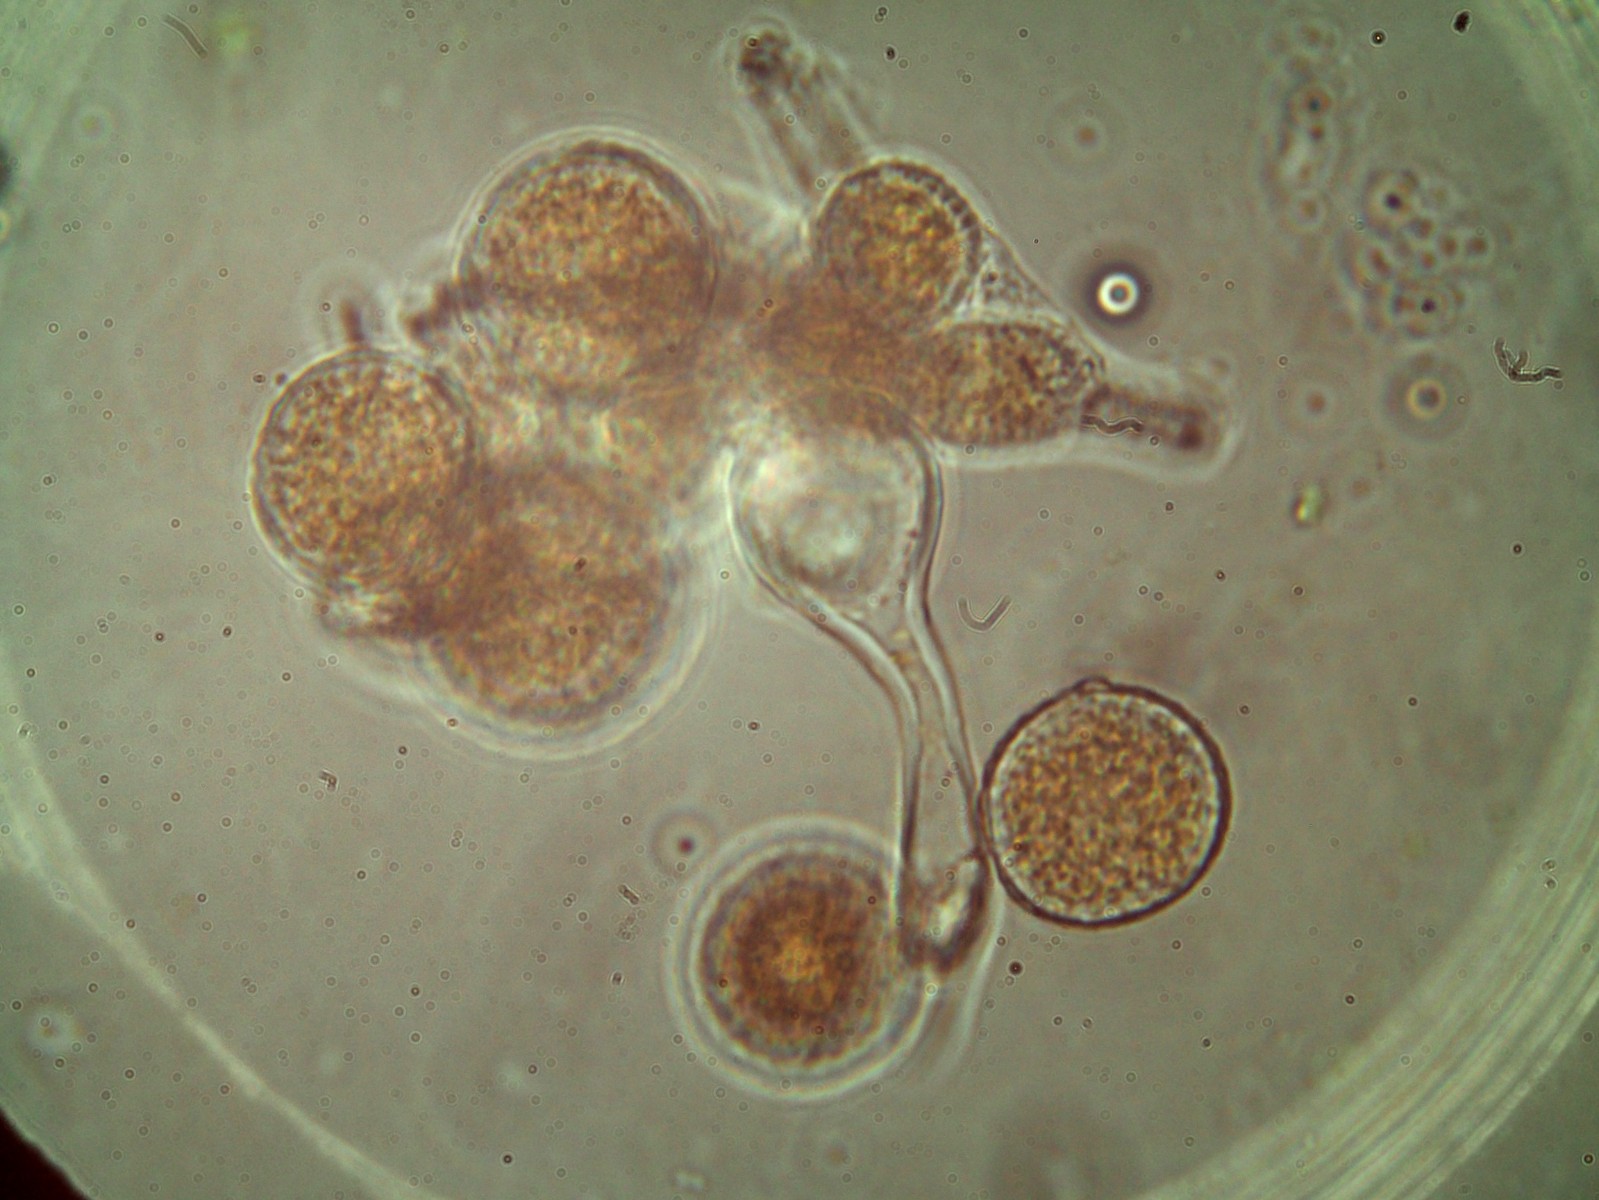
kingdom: Fungi
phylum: Basidiomycota
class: Pucciniomycetes
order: Pucciniales
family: Melampsoraceae
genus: Melampsora
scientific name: Melampsora euphorbiae
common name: vortemælk-skorperust
